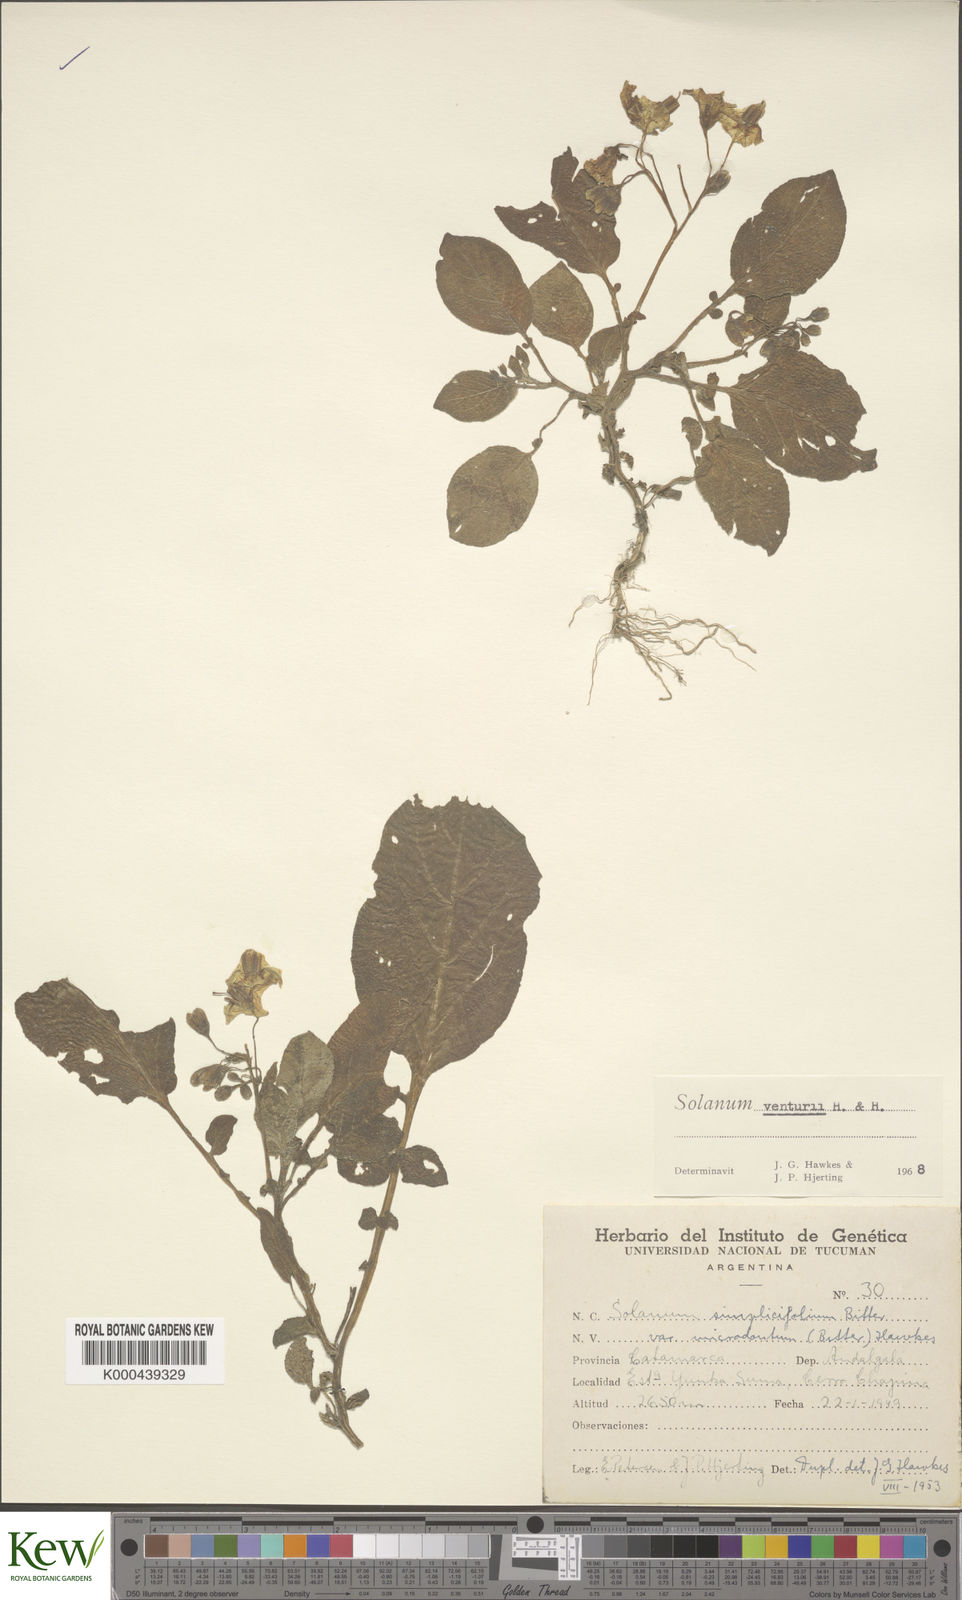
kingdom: Plantae
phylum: Tracheophyta
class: Magnoliopsida
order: Solanales
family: Solanaceae
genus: Solanum
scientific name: Solanum venturii
